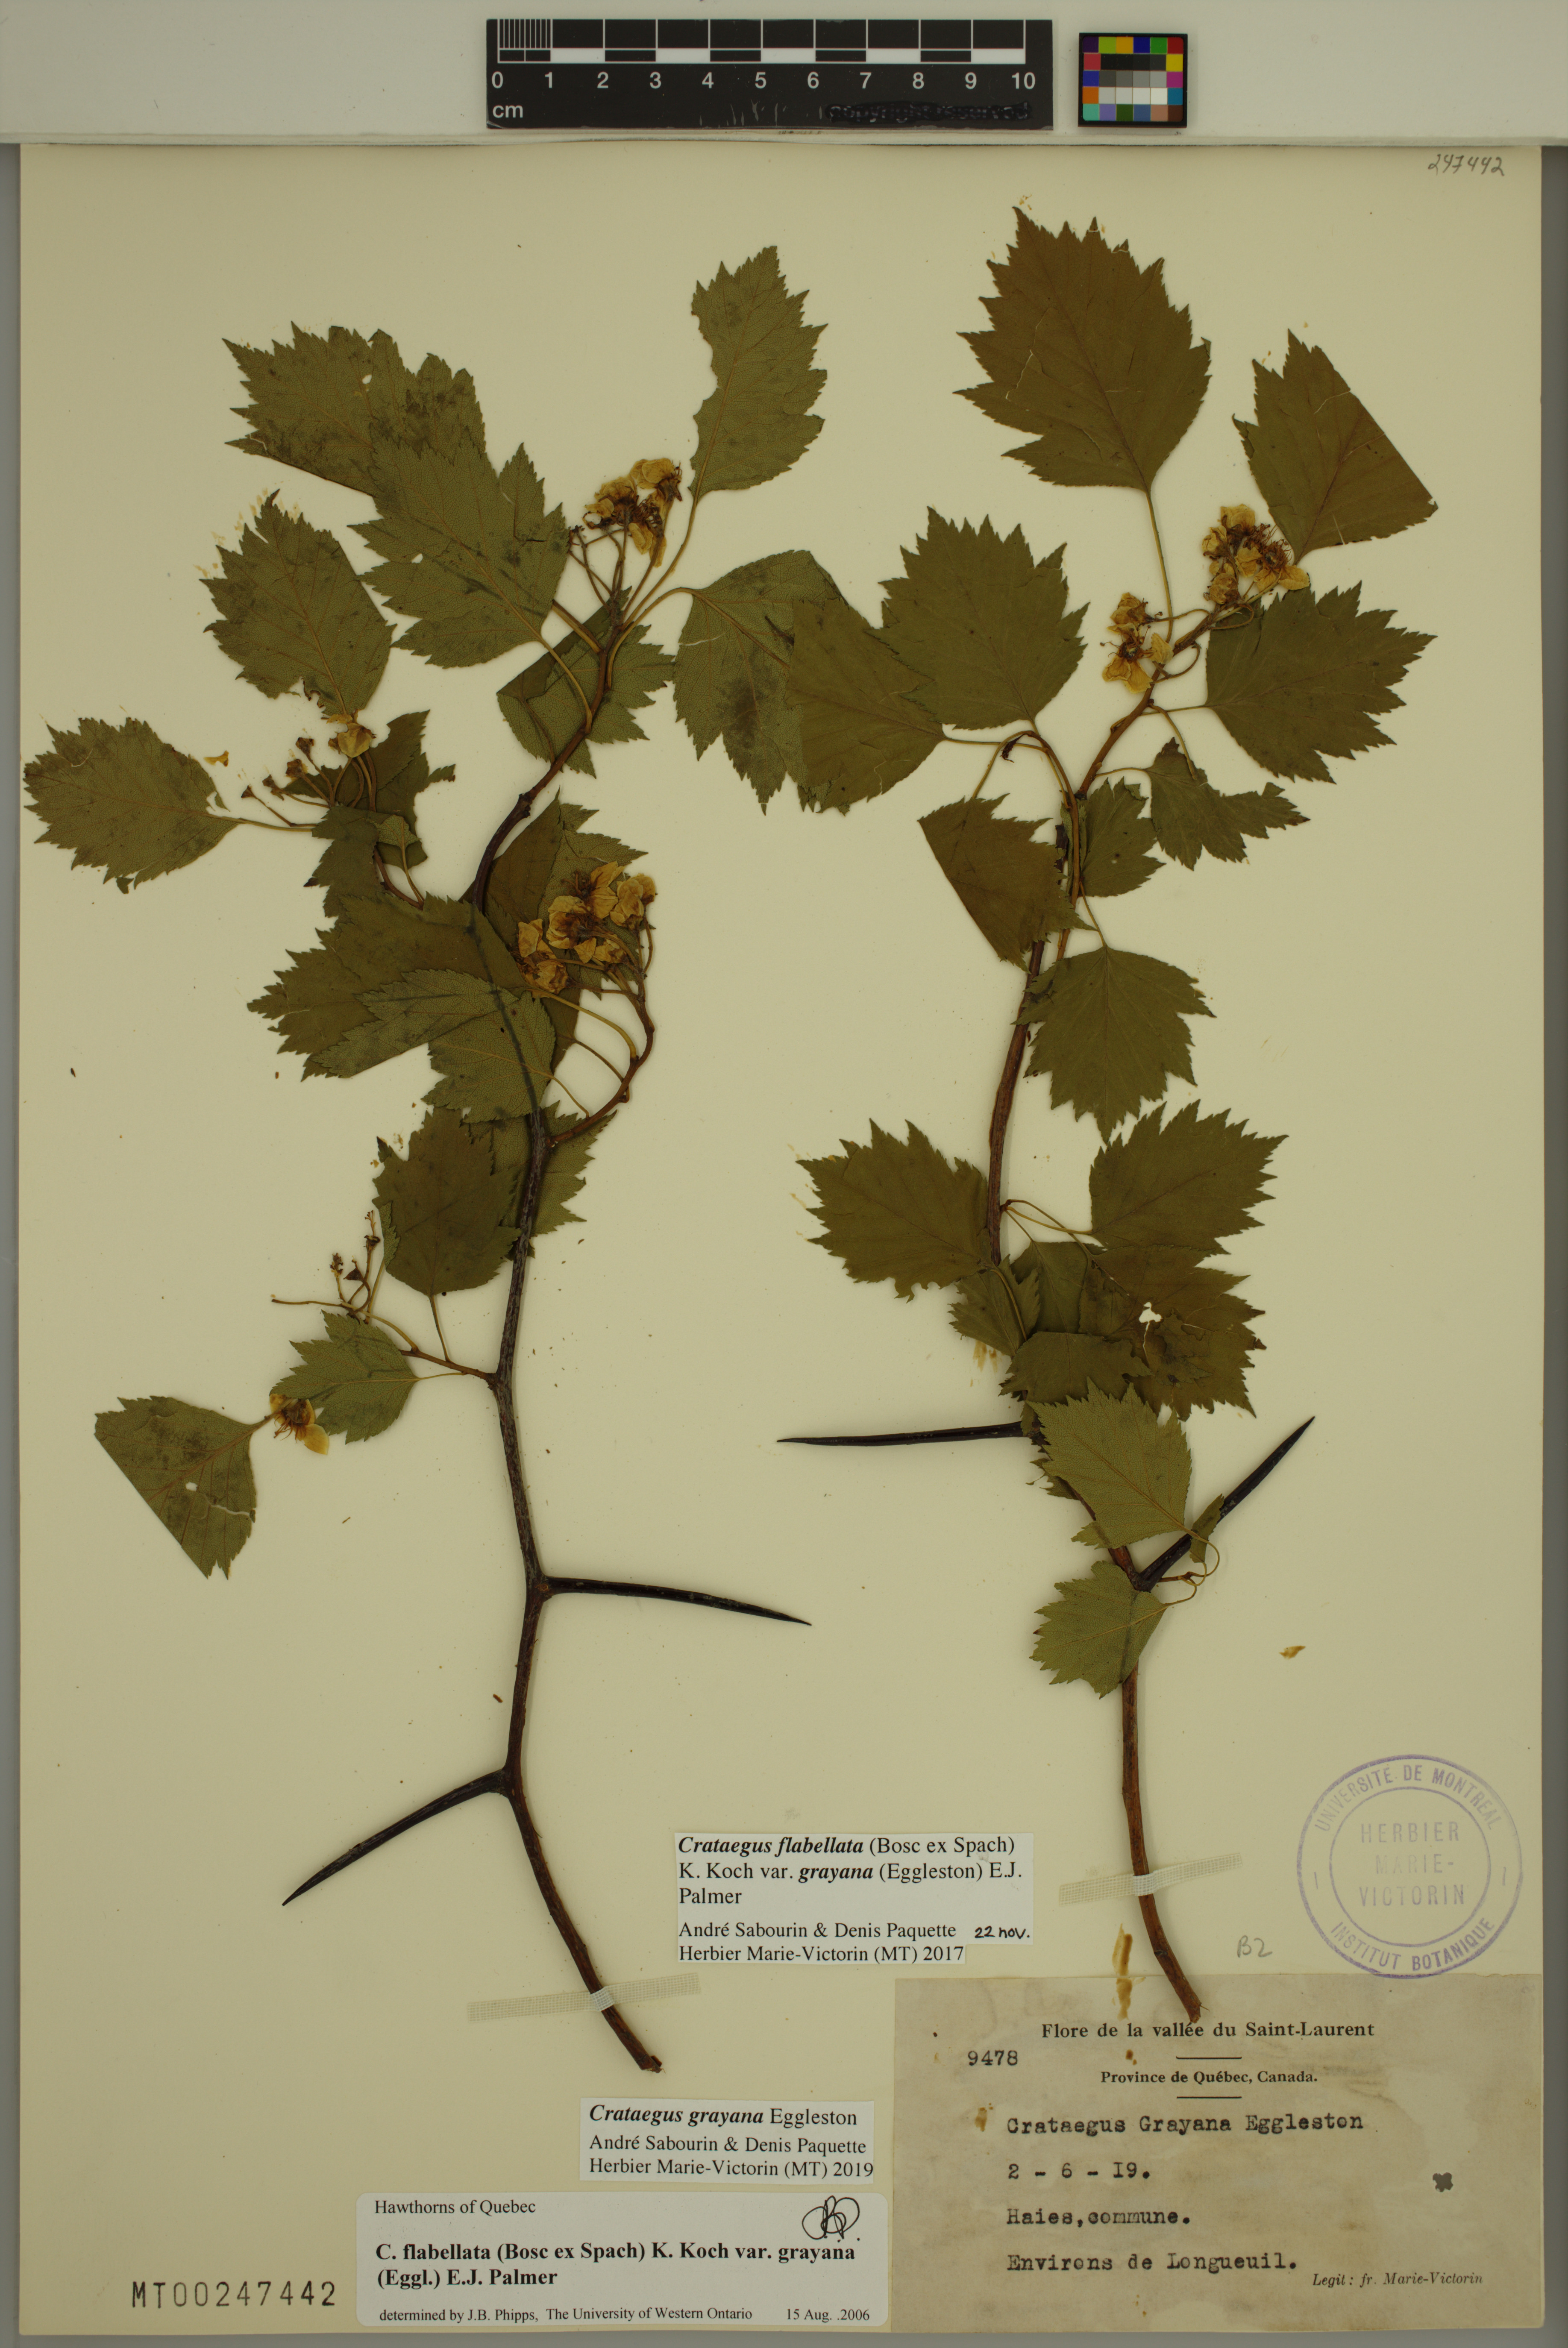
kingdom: Plantae
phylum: Tracheophyta
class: Magnoliopsida
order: Rosales
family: Rosaceae
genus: Crataegus
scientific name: Crataegus schuettei
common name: Schuette's hawthorn
